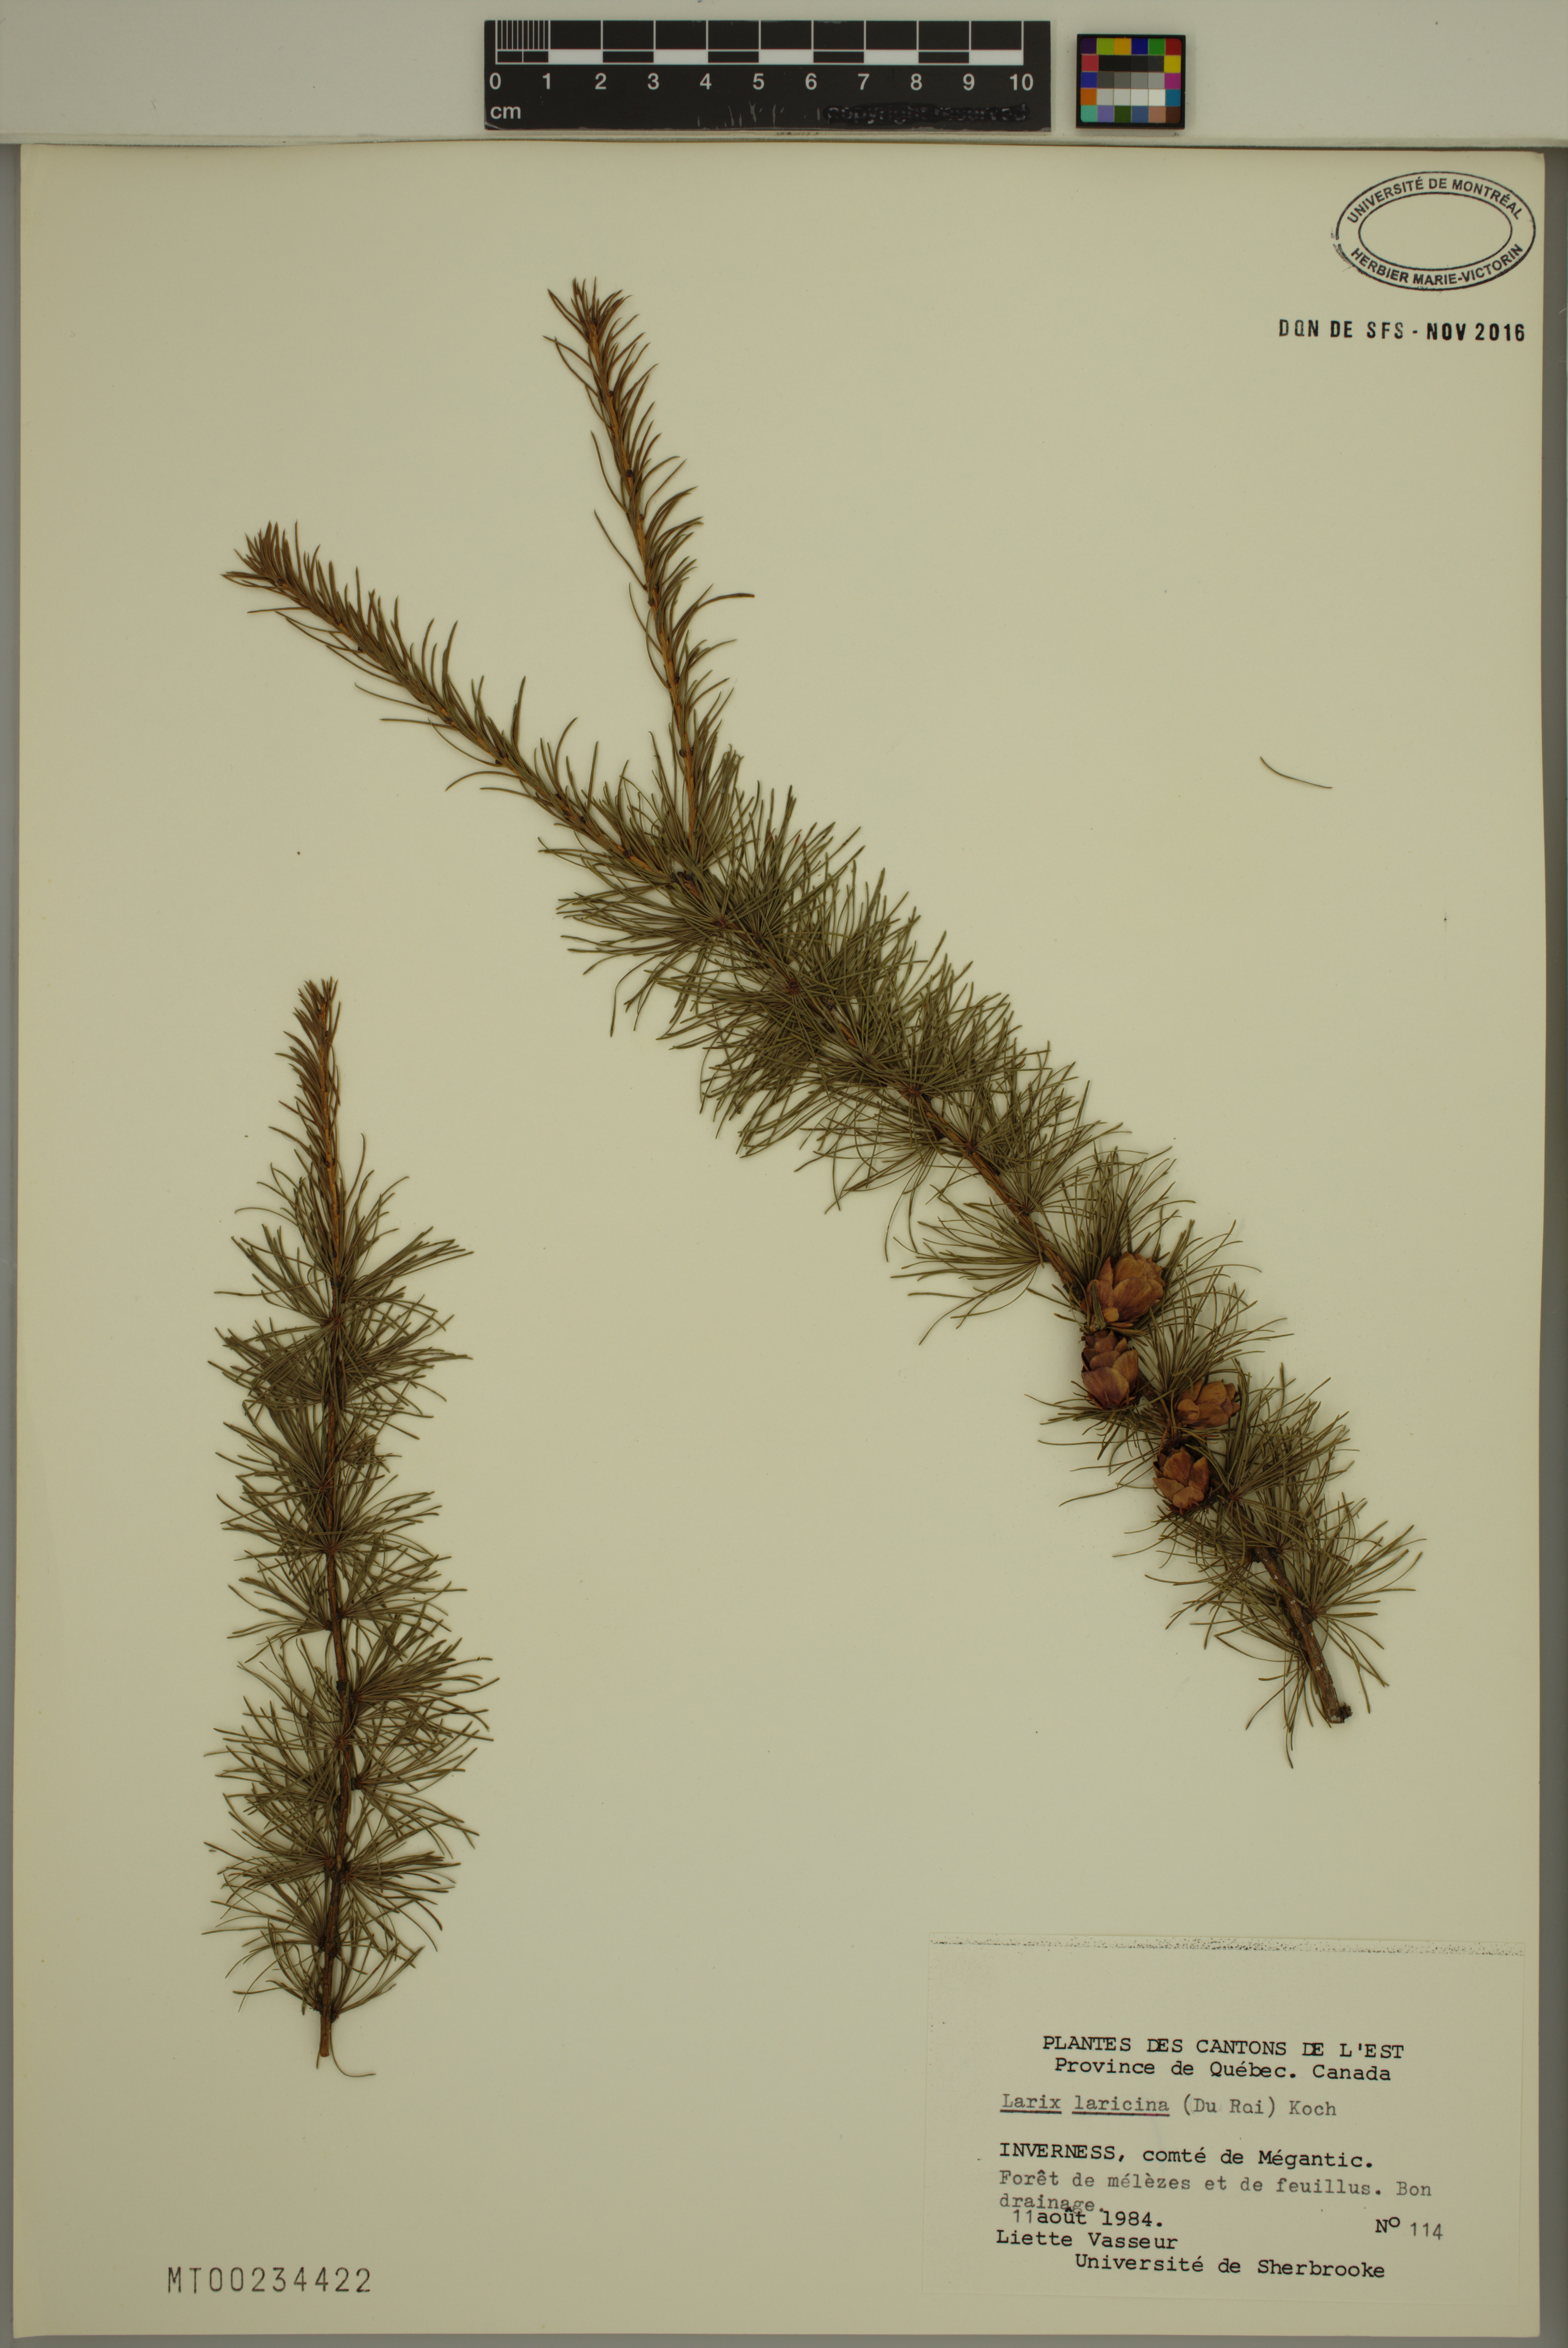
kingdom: Plantae
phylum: Tracheophyta
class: Pinopsida
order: Pinales
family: Pinaceae
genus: Larix
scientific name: Larix laricina
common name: American larch
